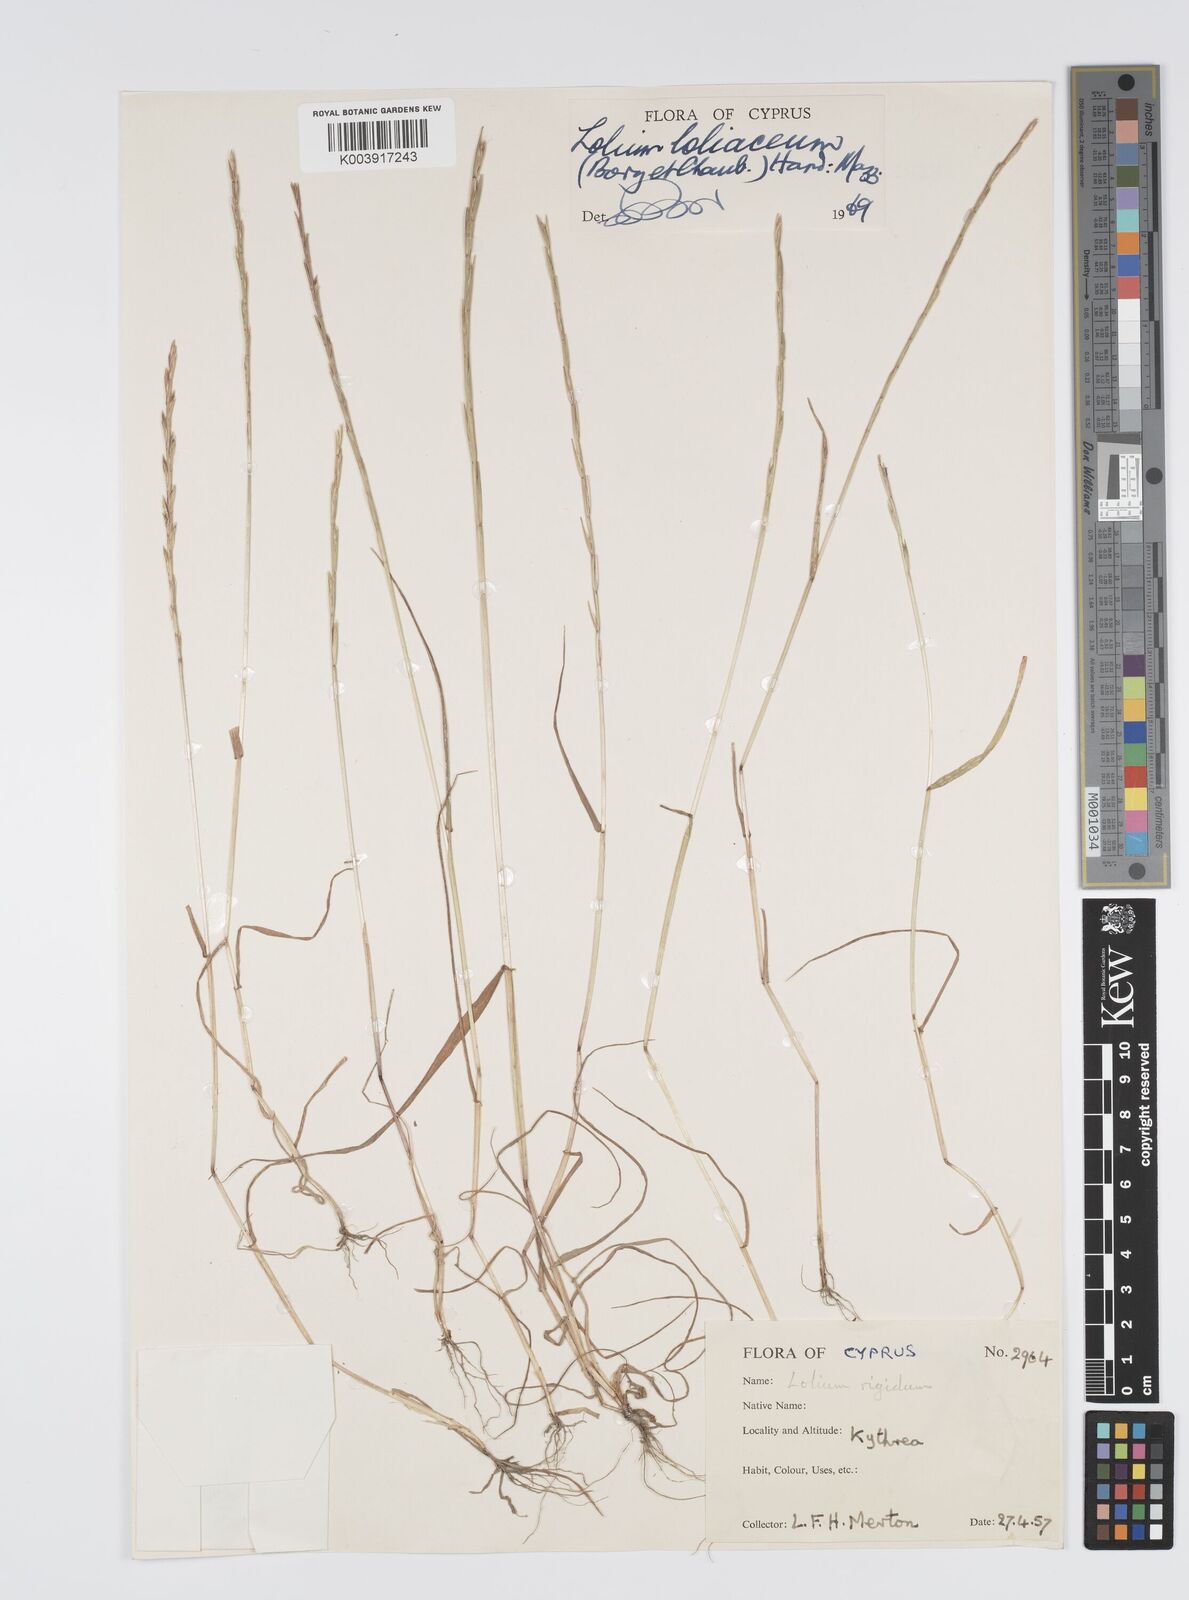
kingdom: Plantae
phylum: Tracheophyta
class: Liliopsida
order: Poales
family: Poaceae
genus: Lolium
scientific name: Lolium rigidum
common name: Wimmera ryegrass
